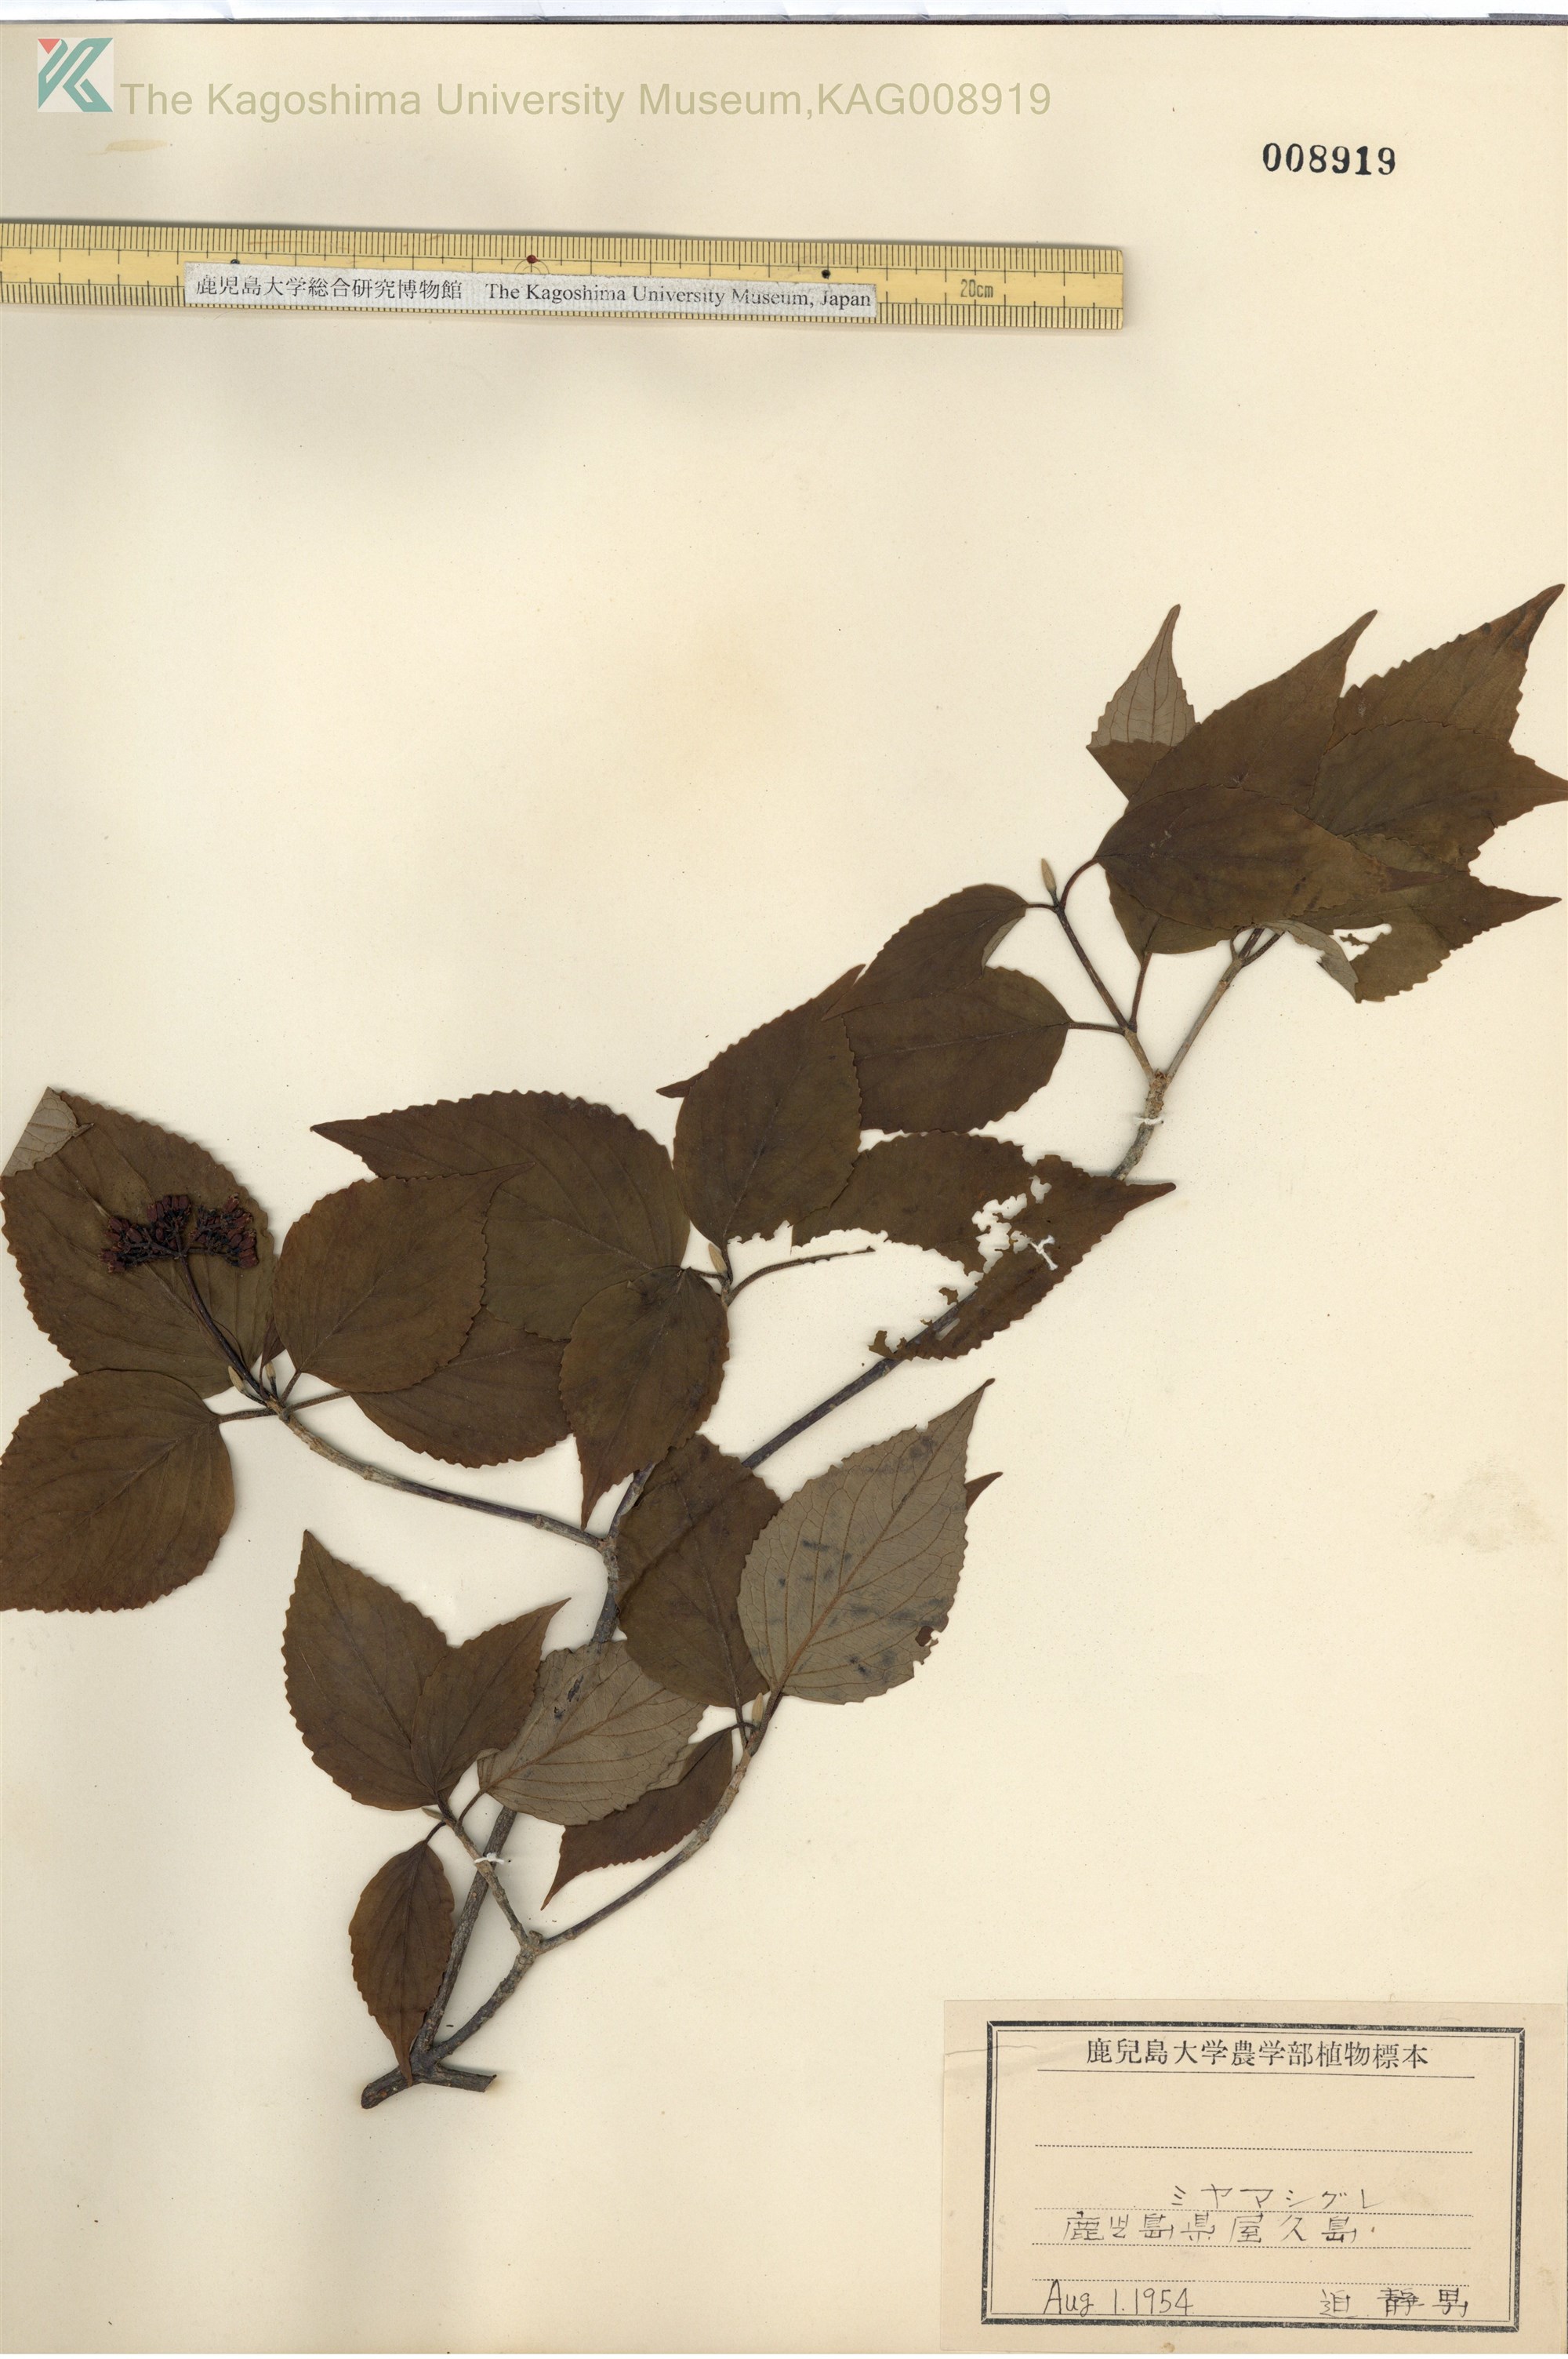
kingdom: Plantae
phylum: Tracheophyta
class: Magnoliopsida
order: Dipsacales
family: Viburnaceae
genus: Viburnum
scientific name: Viburnum urceolatum
